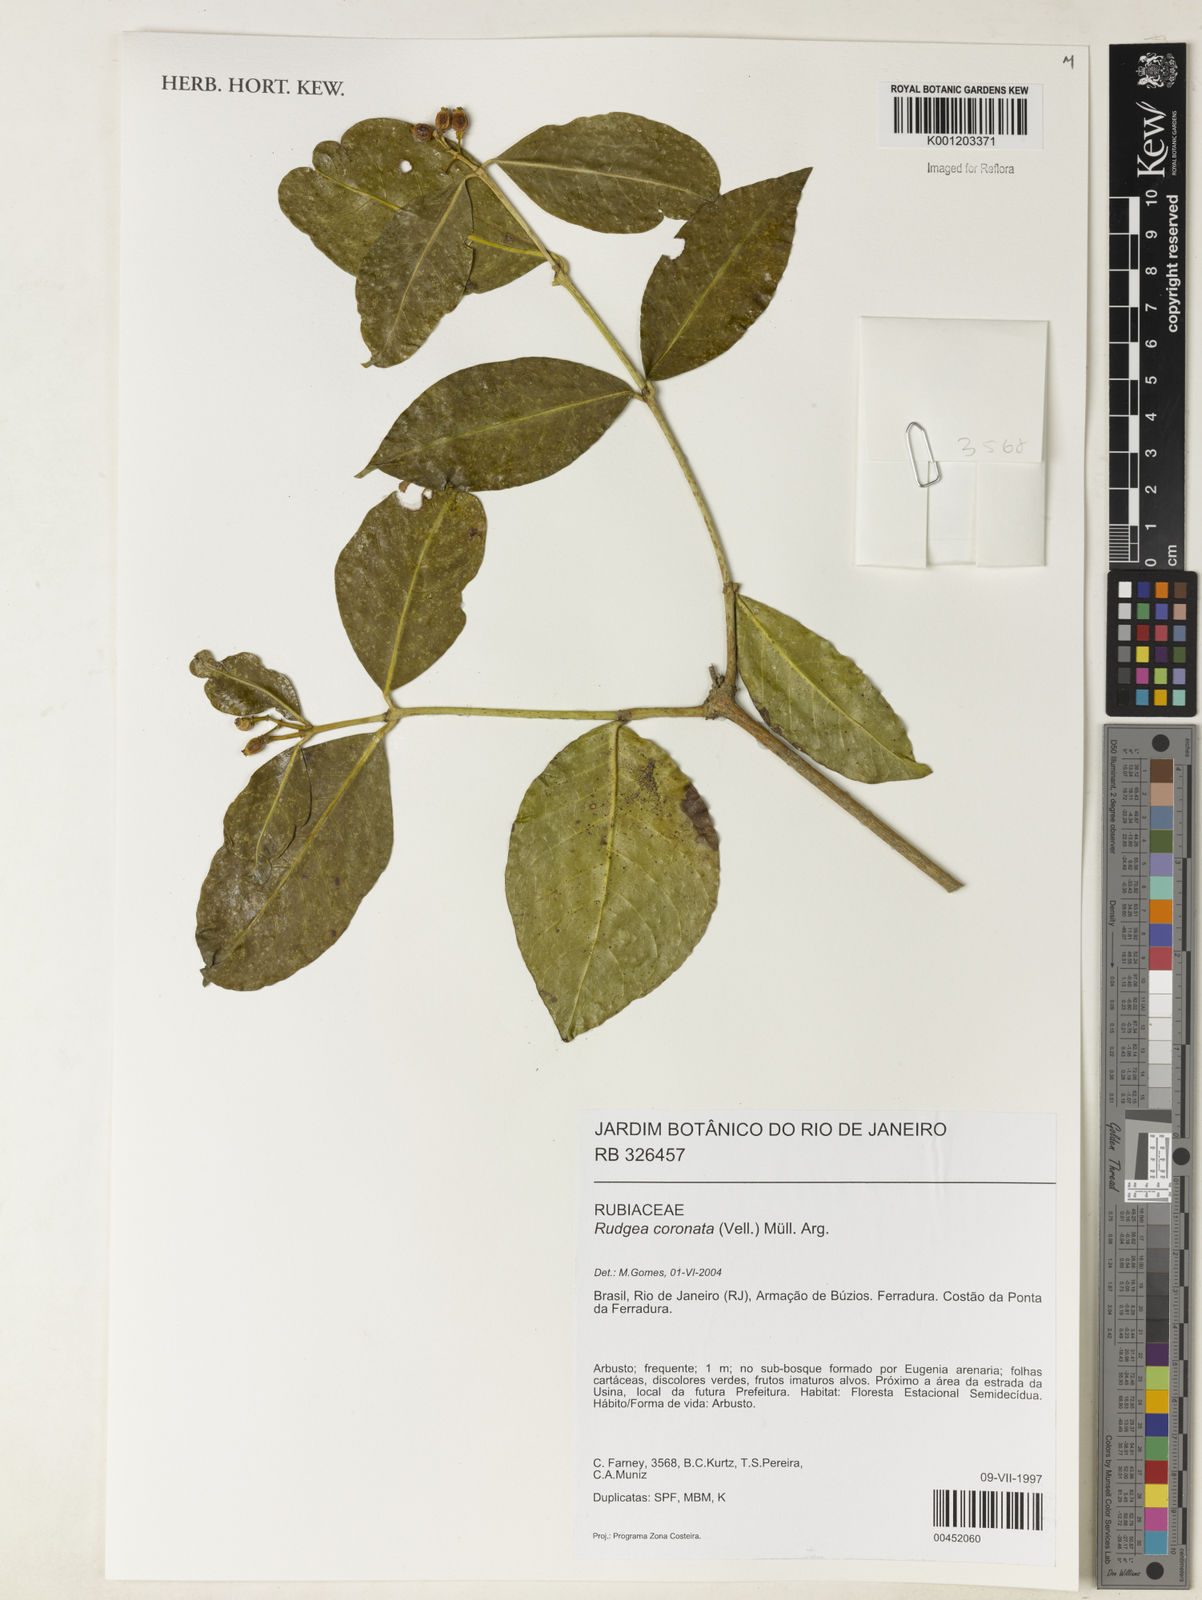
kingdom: Plantae
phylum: Tracheophyta
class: Magnoliopsida
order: Gentianales
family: Rubiaceae
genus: Rudgea
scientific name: Rudgea
